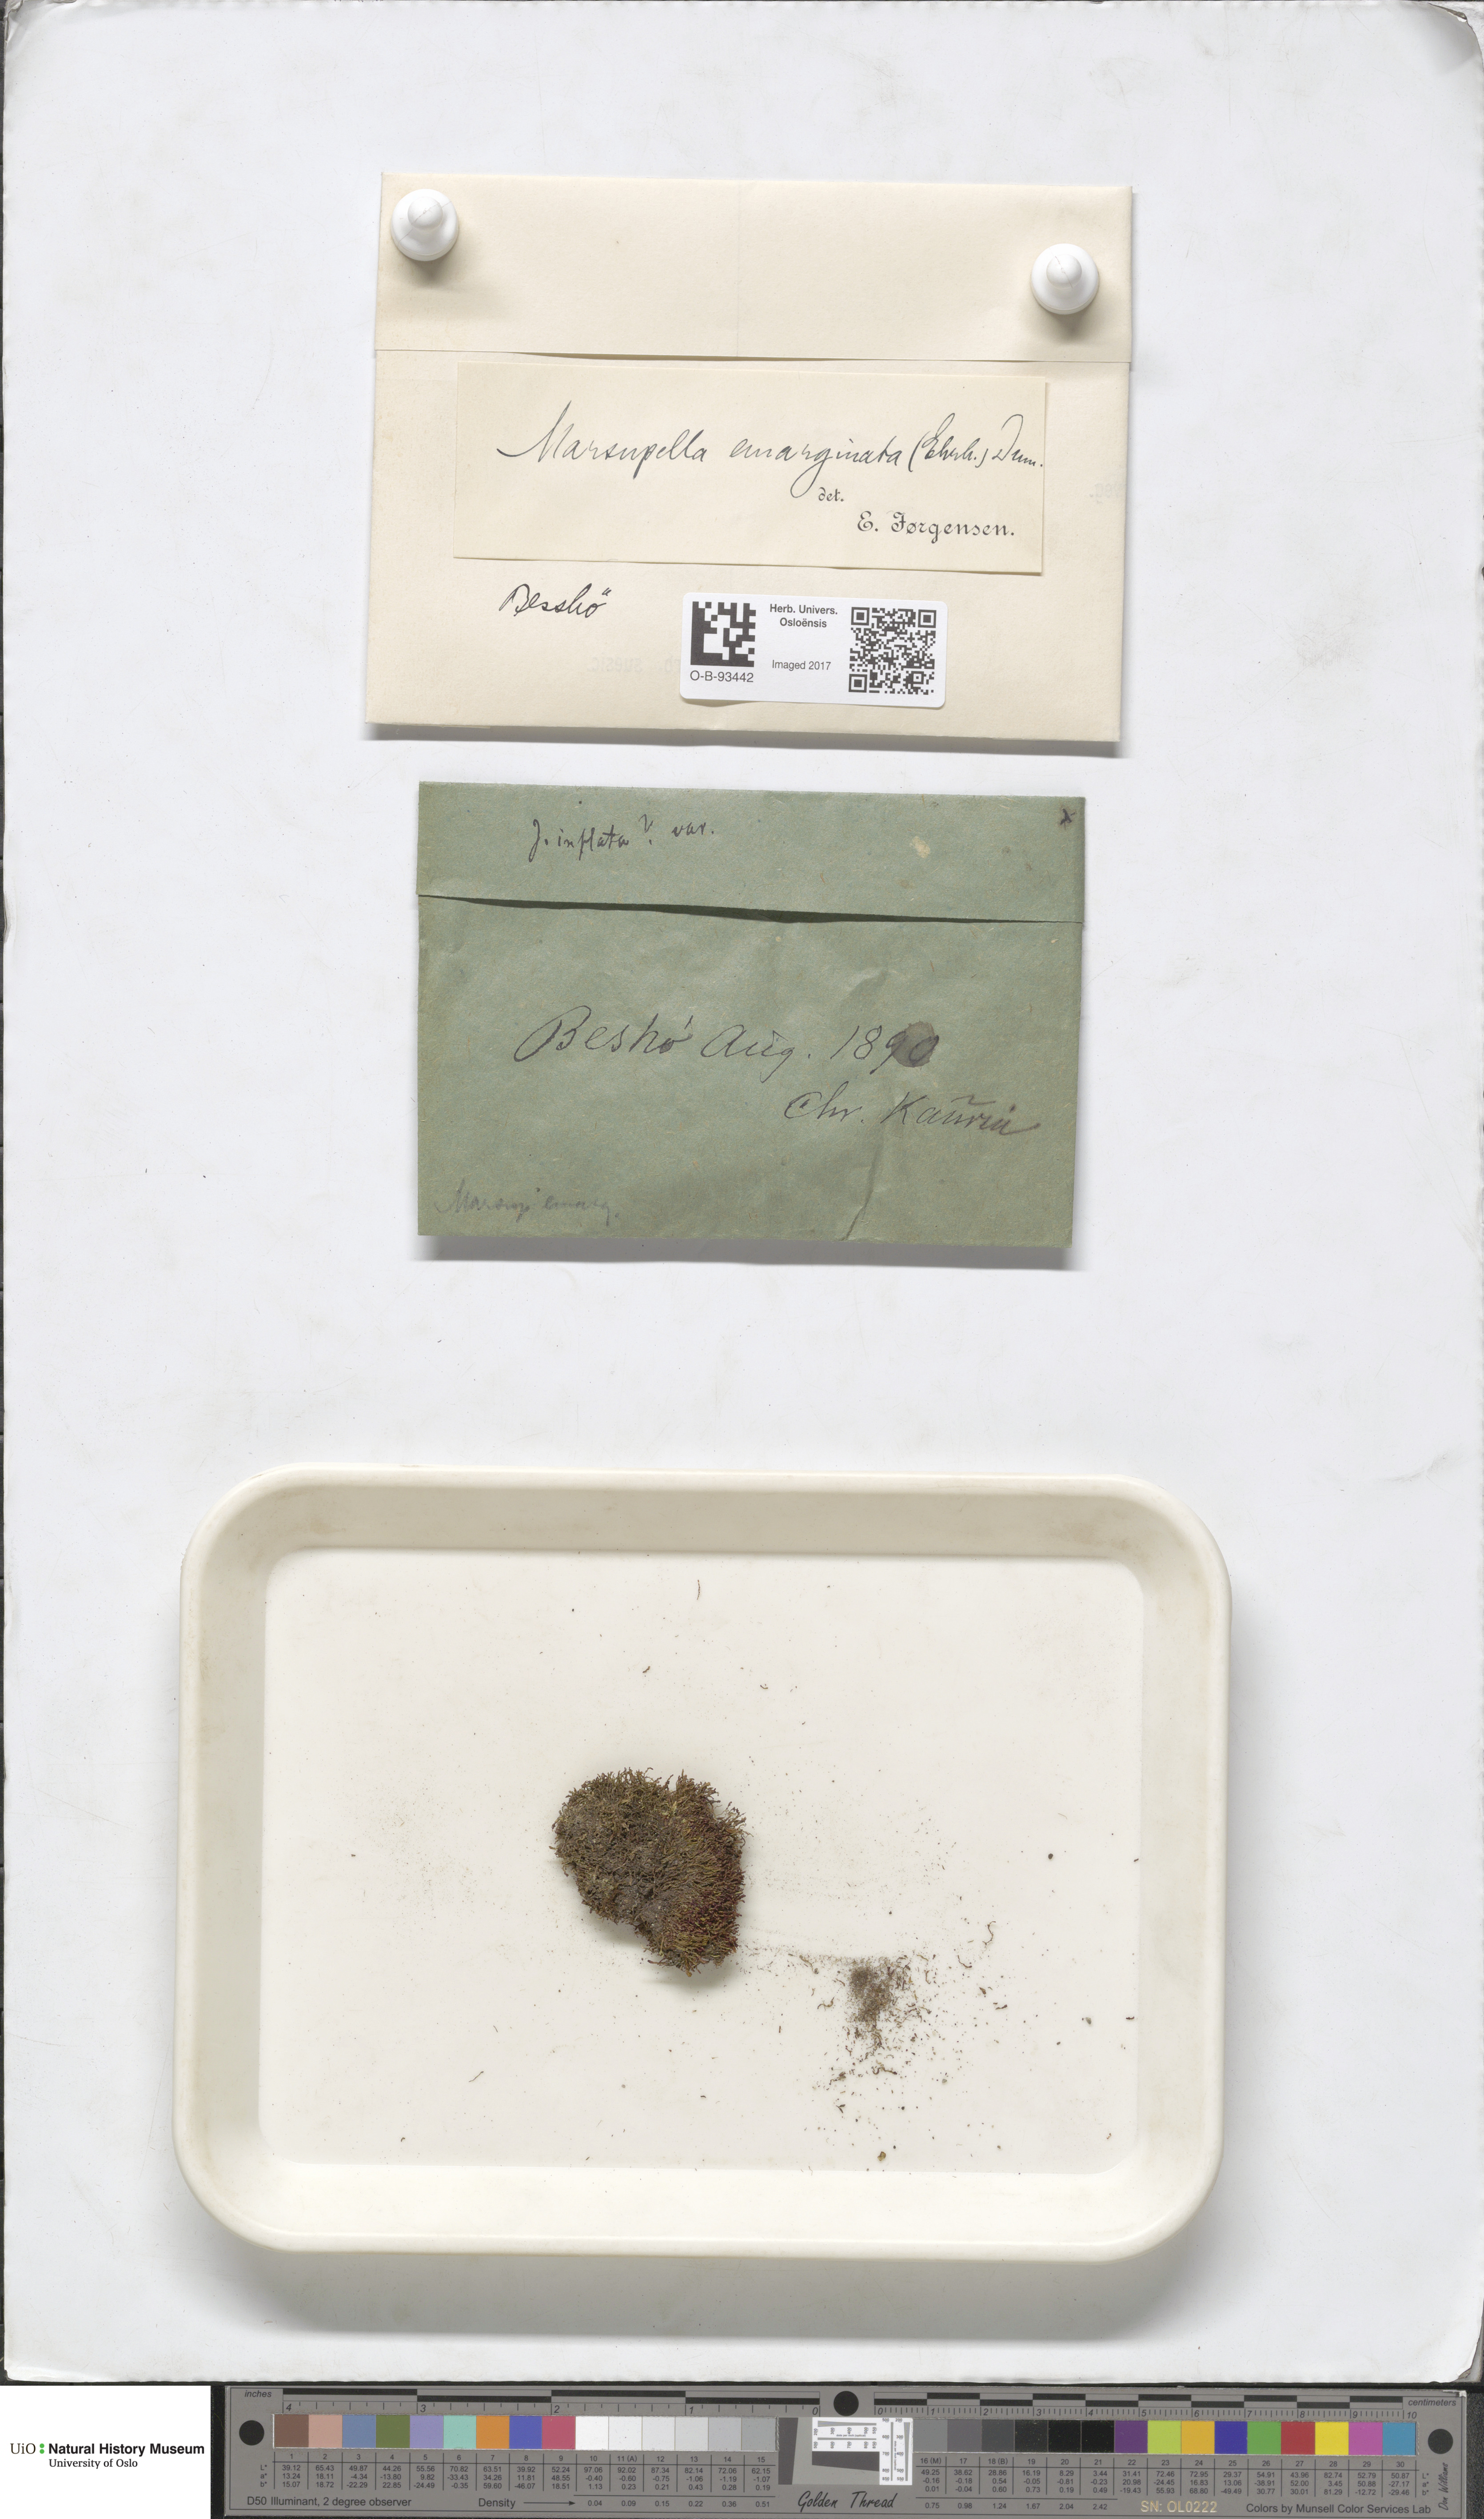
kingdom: Plantae
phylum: Marchantiophyta
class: Jungermanniopsida
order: Jungermanniales
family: Gymnomitriaceae
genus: Gymnomitrion
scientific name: Gymnomitrion brevissimum
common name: Snow rustwort
